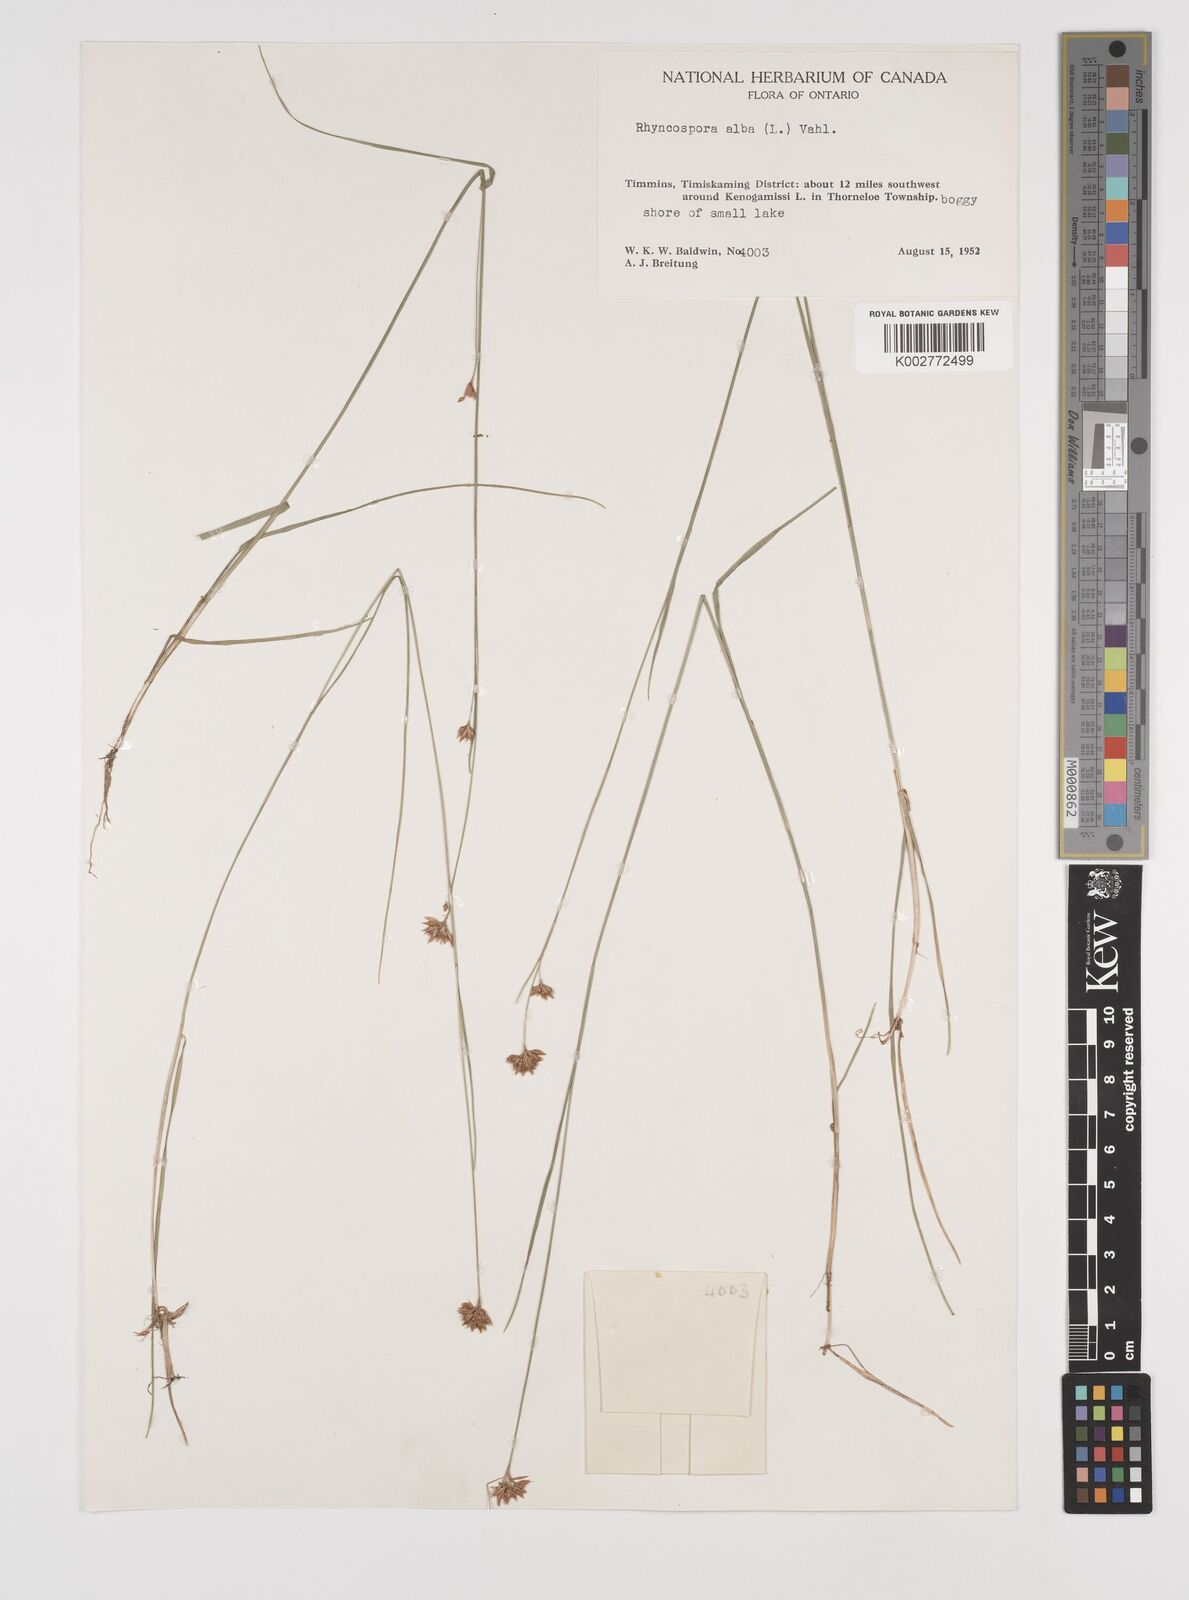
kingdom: Plantae
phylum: Tracheophyta
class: Liliopsida
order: Poales
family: Cyperaceae
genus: Rhynchospora
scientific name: Rhynchospora alba
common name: White beak-sedge
